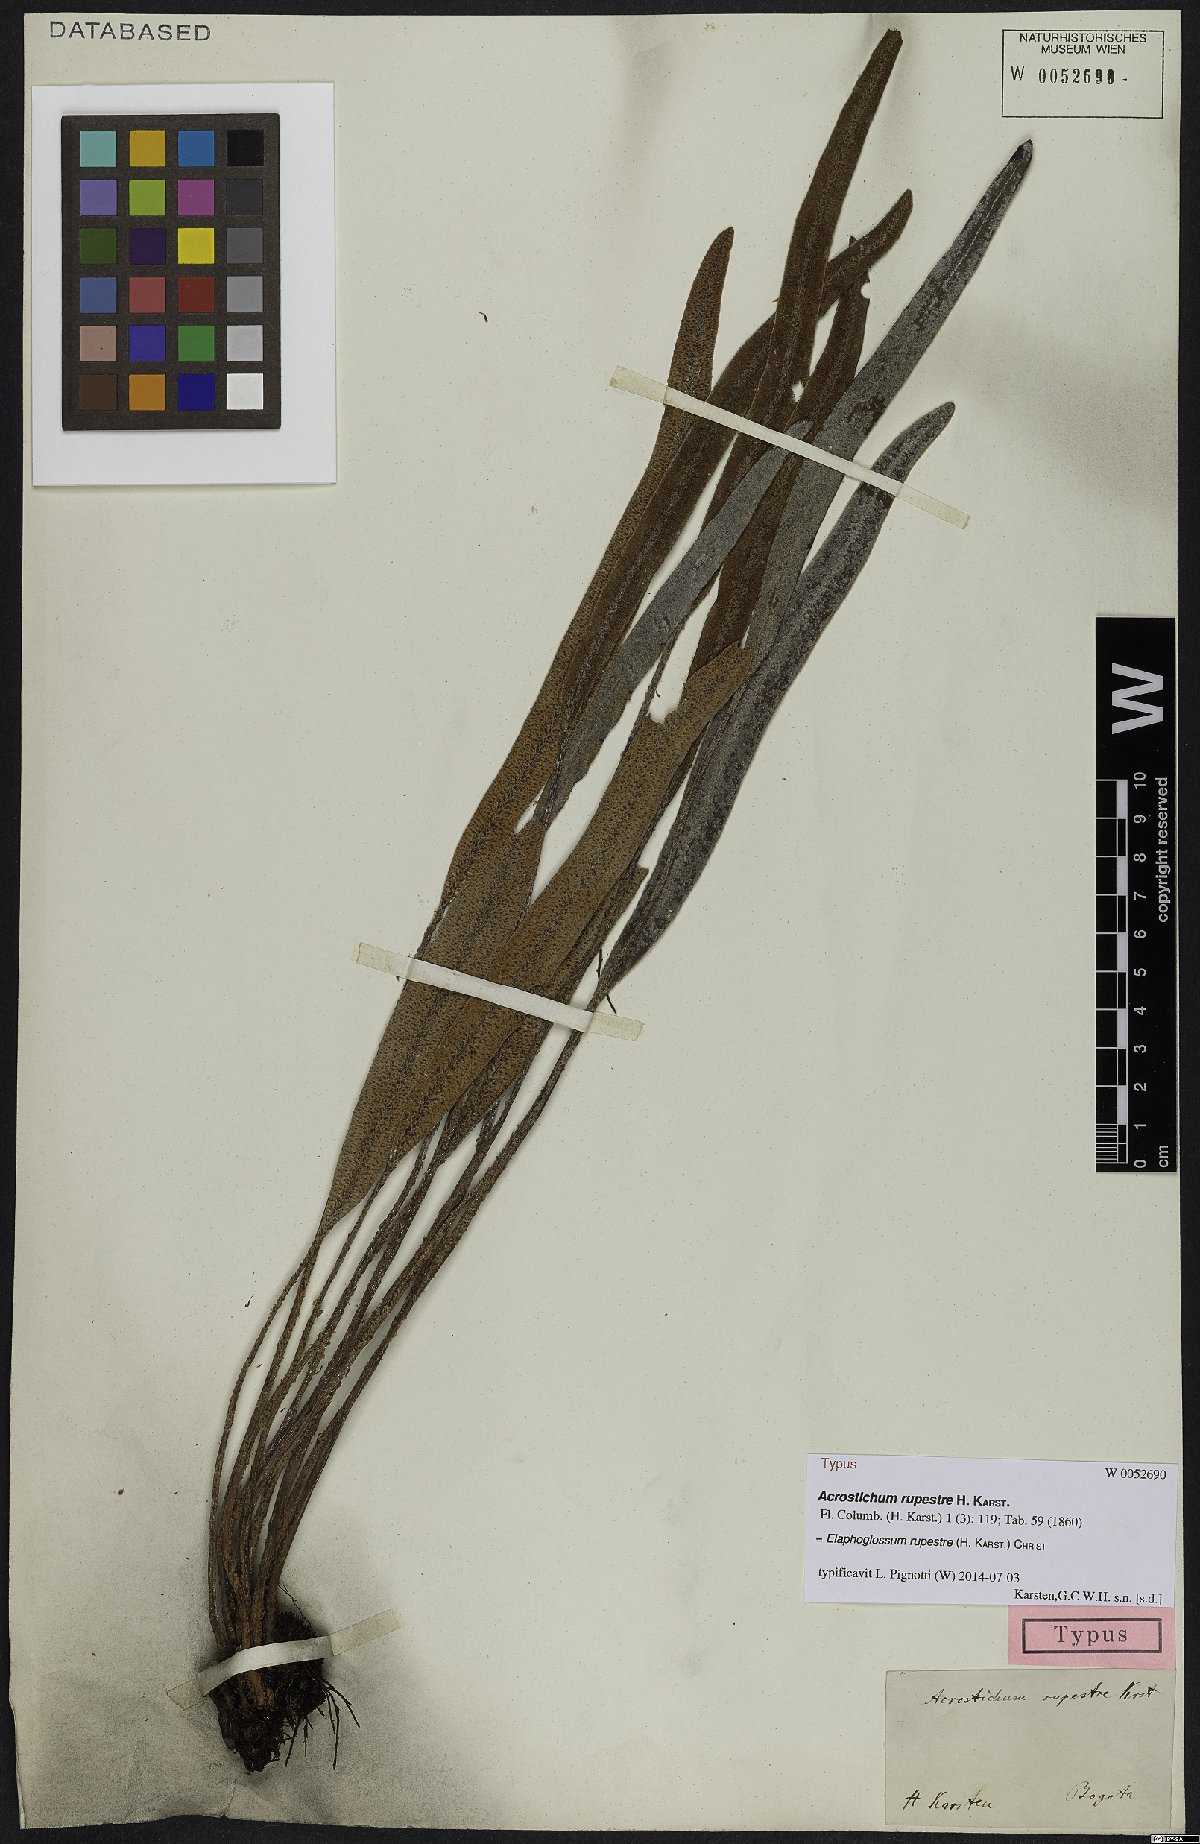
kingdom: Plantae
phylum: Tracheophyta
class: Polypodiopsida
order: Polypodiales
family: Dryopteridaceae
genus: Elaphoglossum
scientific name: Elaphoglossum rupestre
